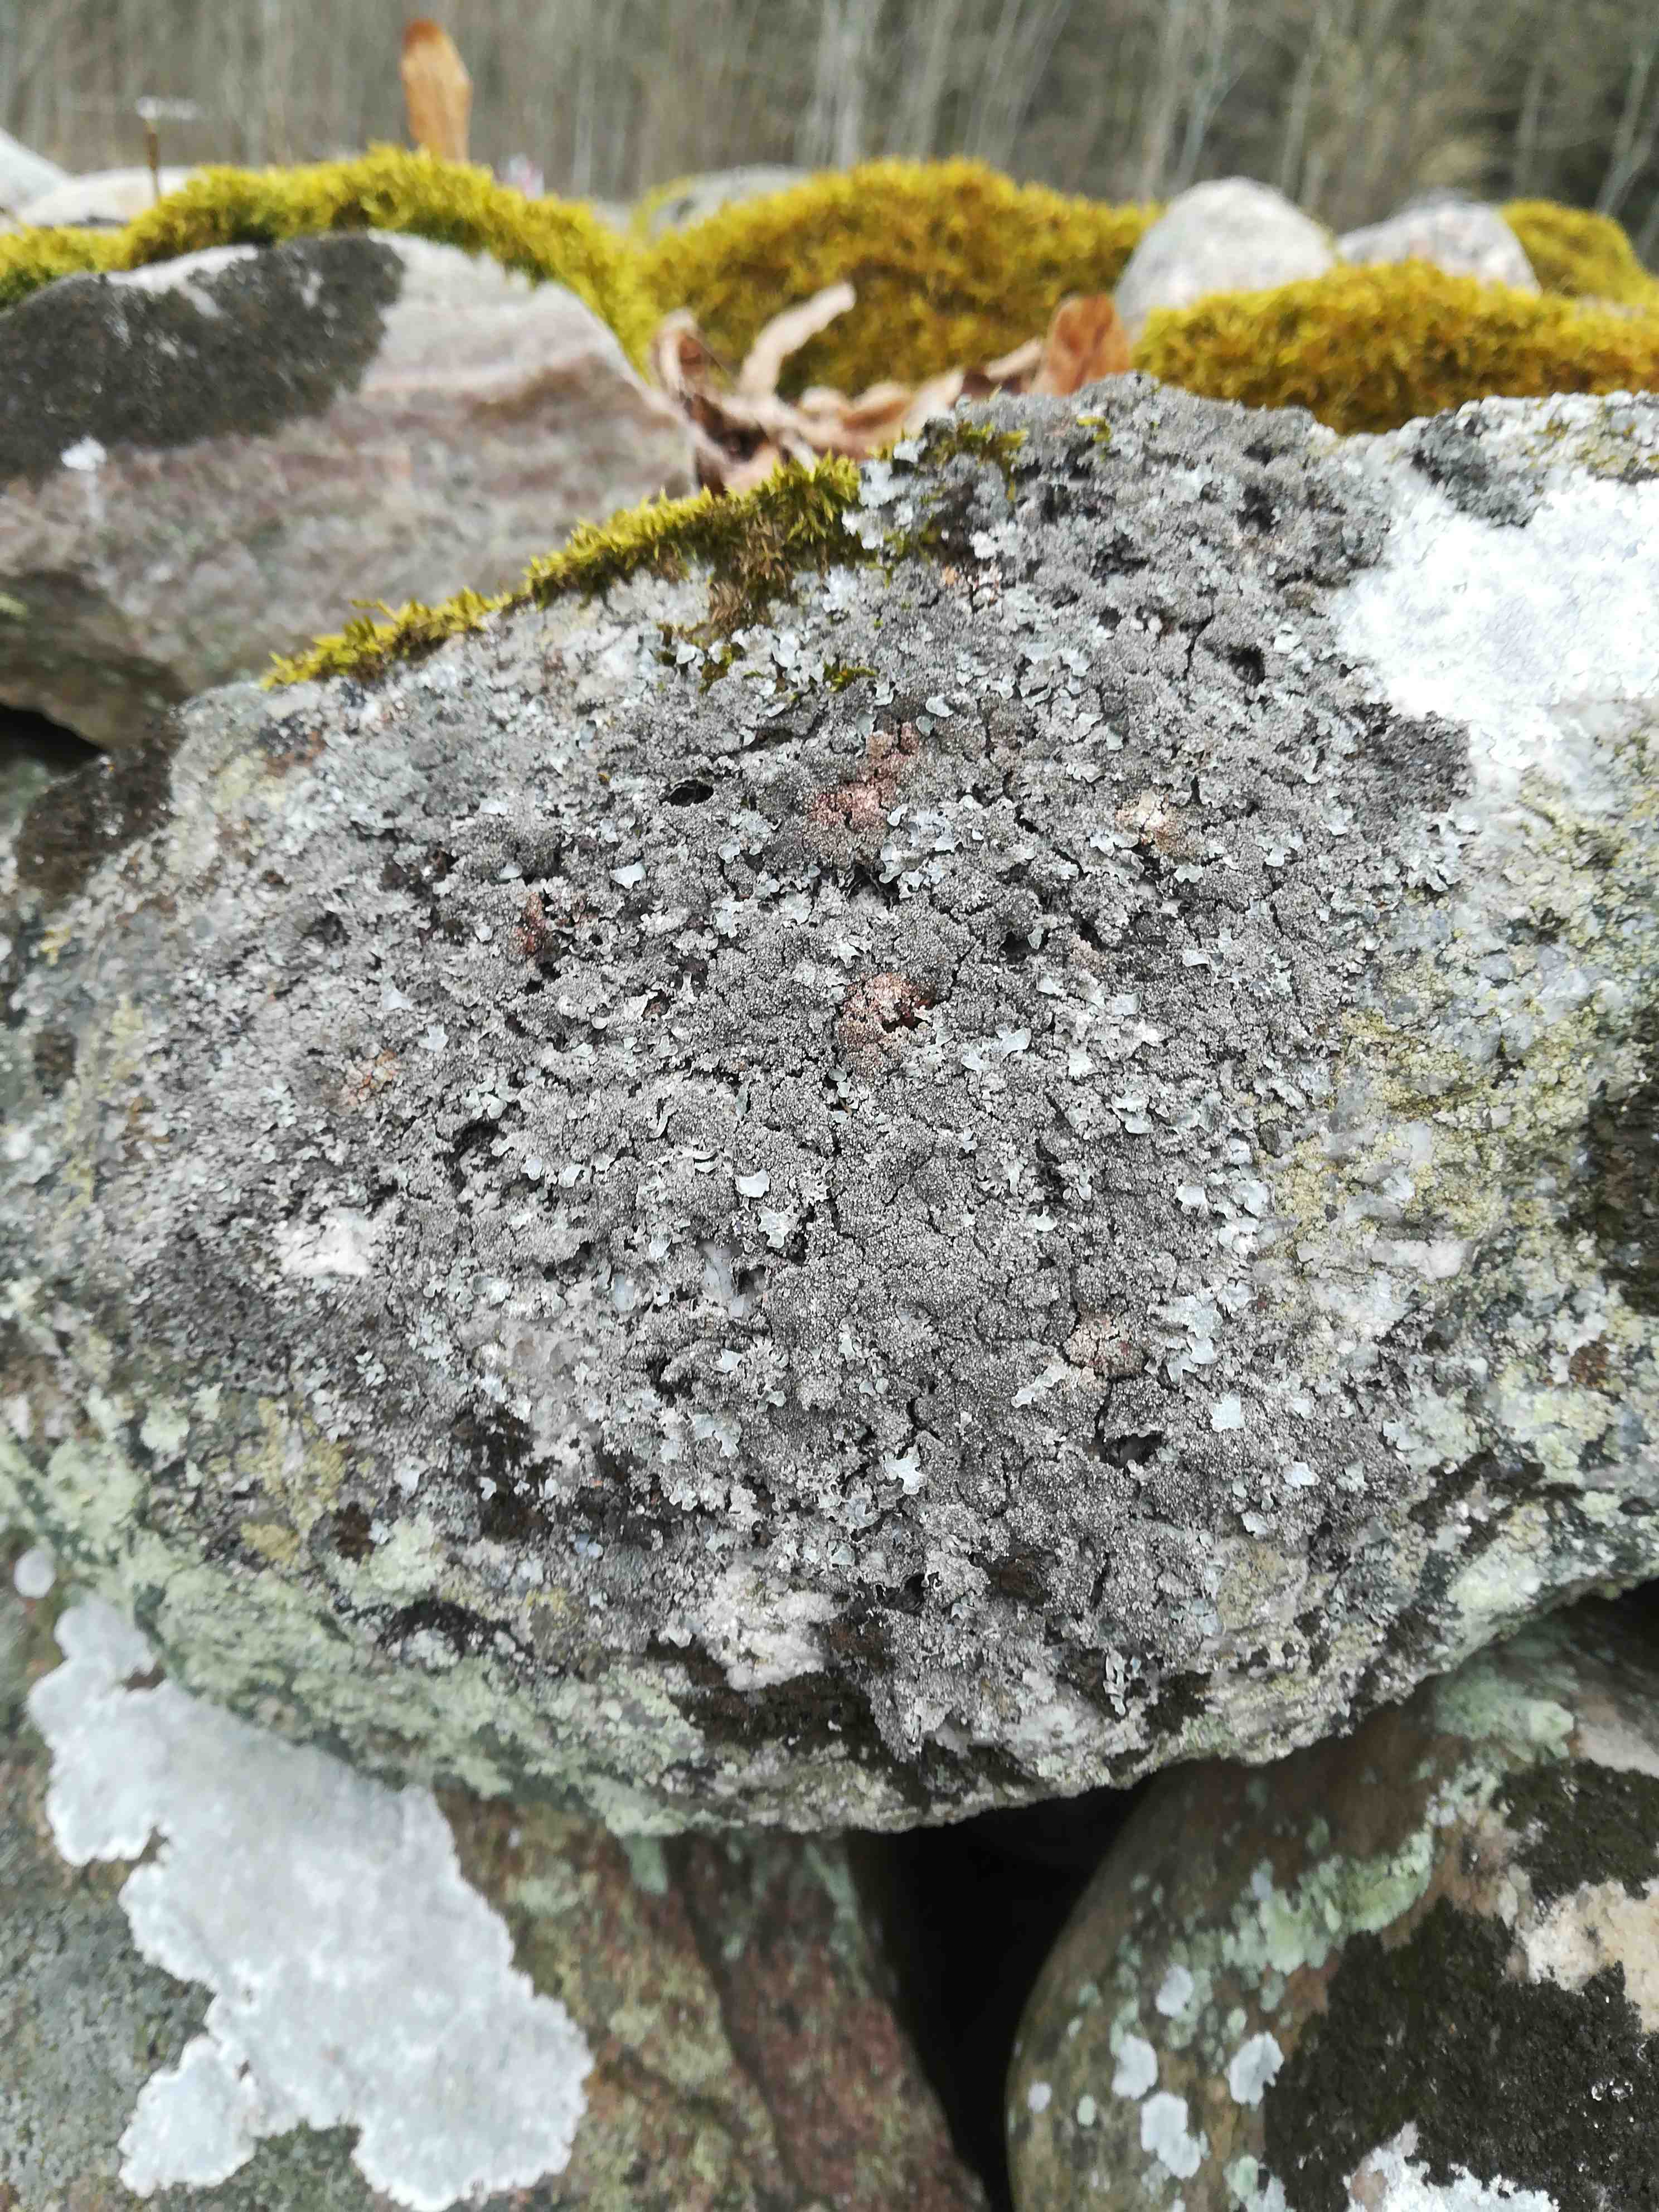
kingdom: Fungi
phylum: Ascomycota
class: Lecanoromycetes
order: Lecanorales
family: Parmeliaceae
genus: Parmelia
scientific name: Parmelia saxatilis
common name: farve-skållav
